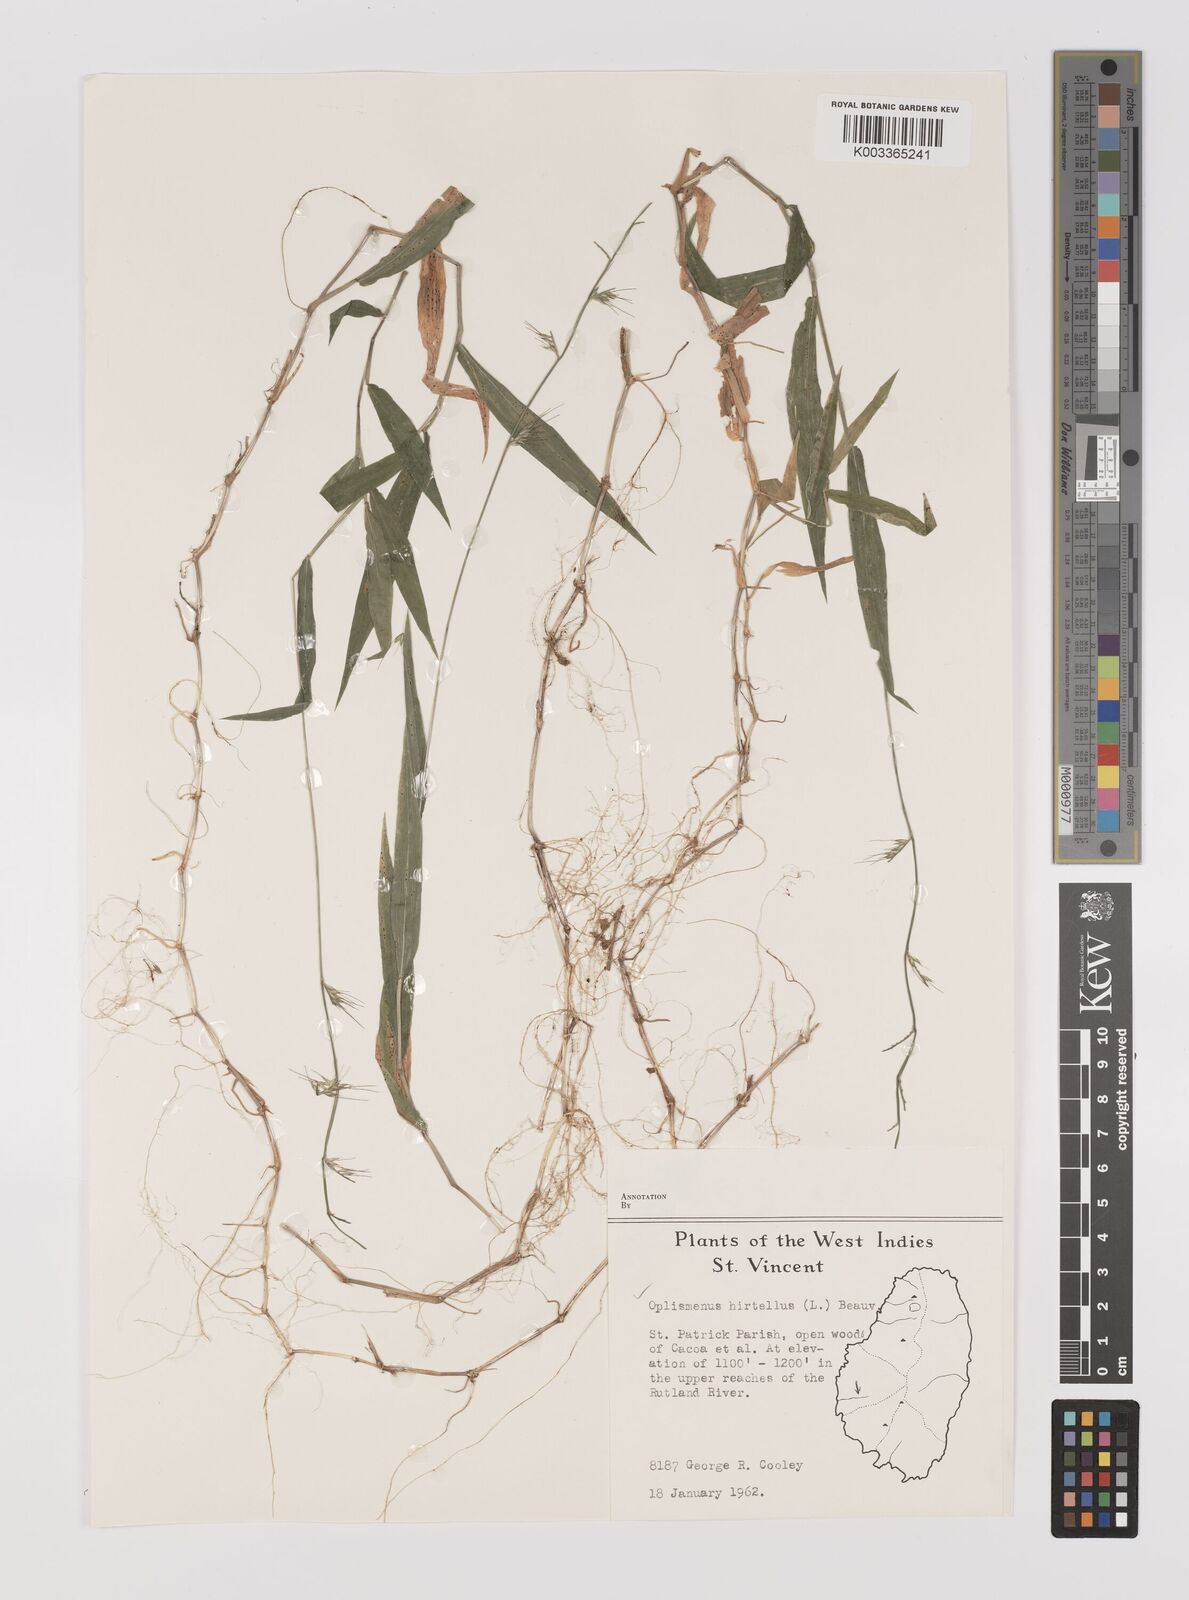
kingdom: Plantae
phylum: Tracheophyta
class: Liliopsida
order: Poales
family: Poaceae
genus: Oplismenus
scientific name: Oplismenus hirtellus
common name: Basketgrass
